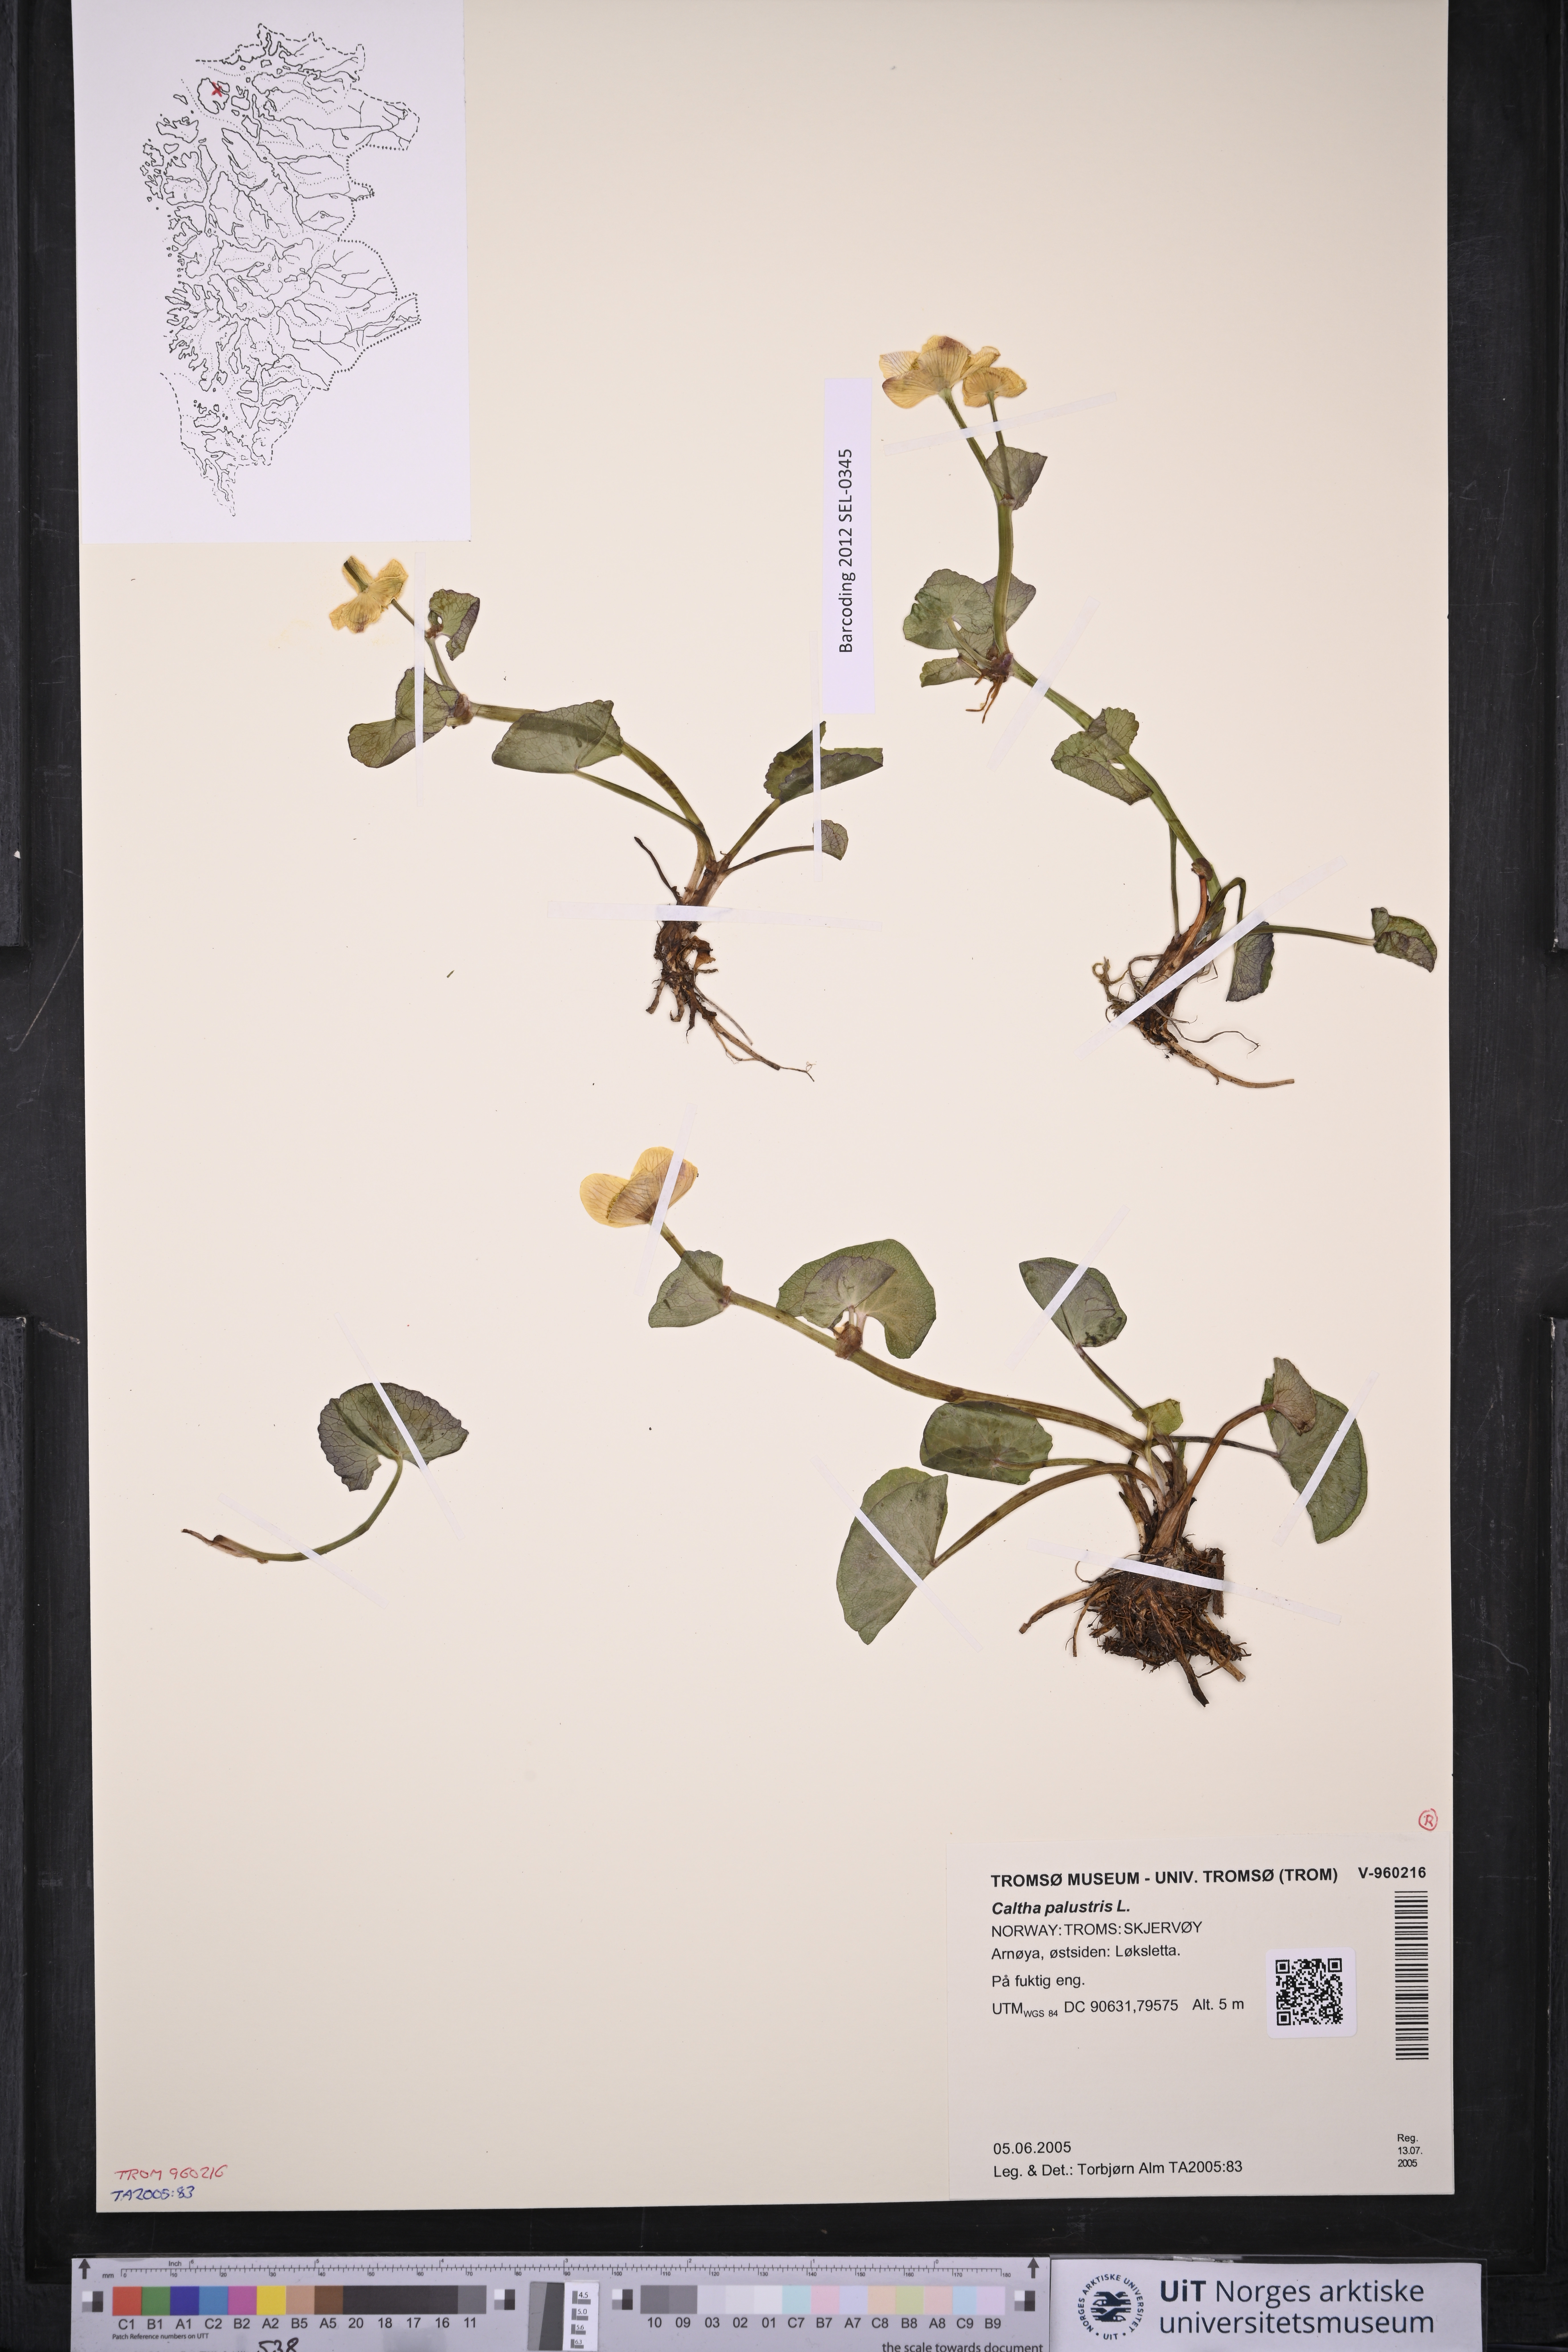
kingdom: Plantae
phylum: Tracheophyta
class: Magnoliopsida
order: Ranunculales
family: Ranunculaceae
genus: Caltha
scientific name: Caltha palustris
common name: Marsh marigold
